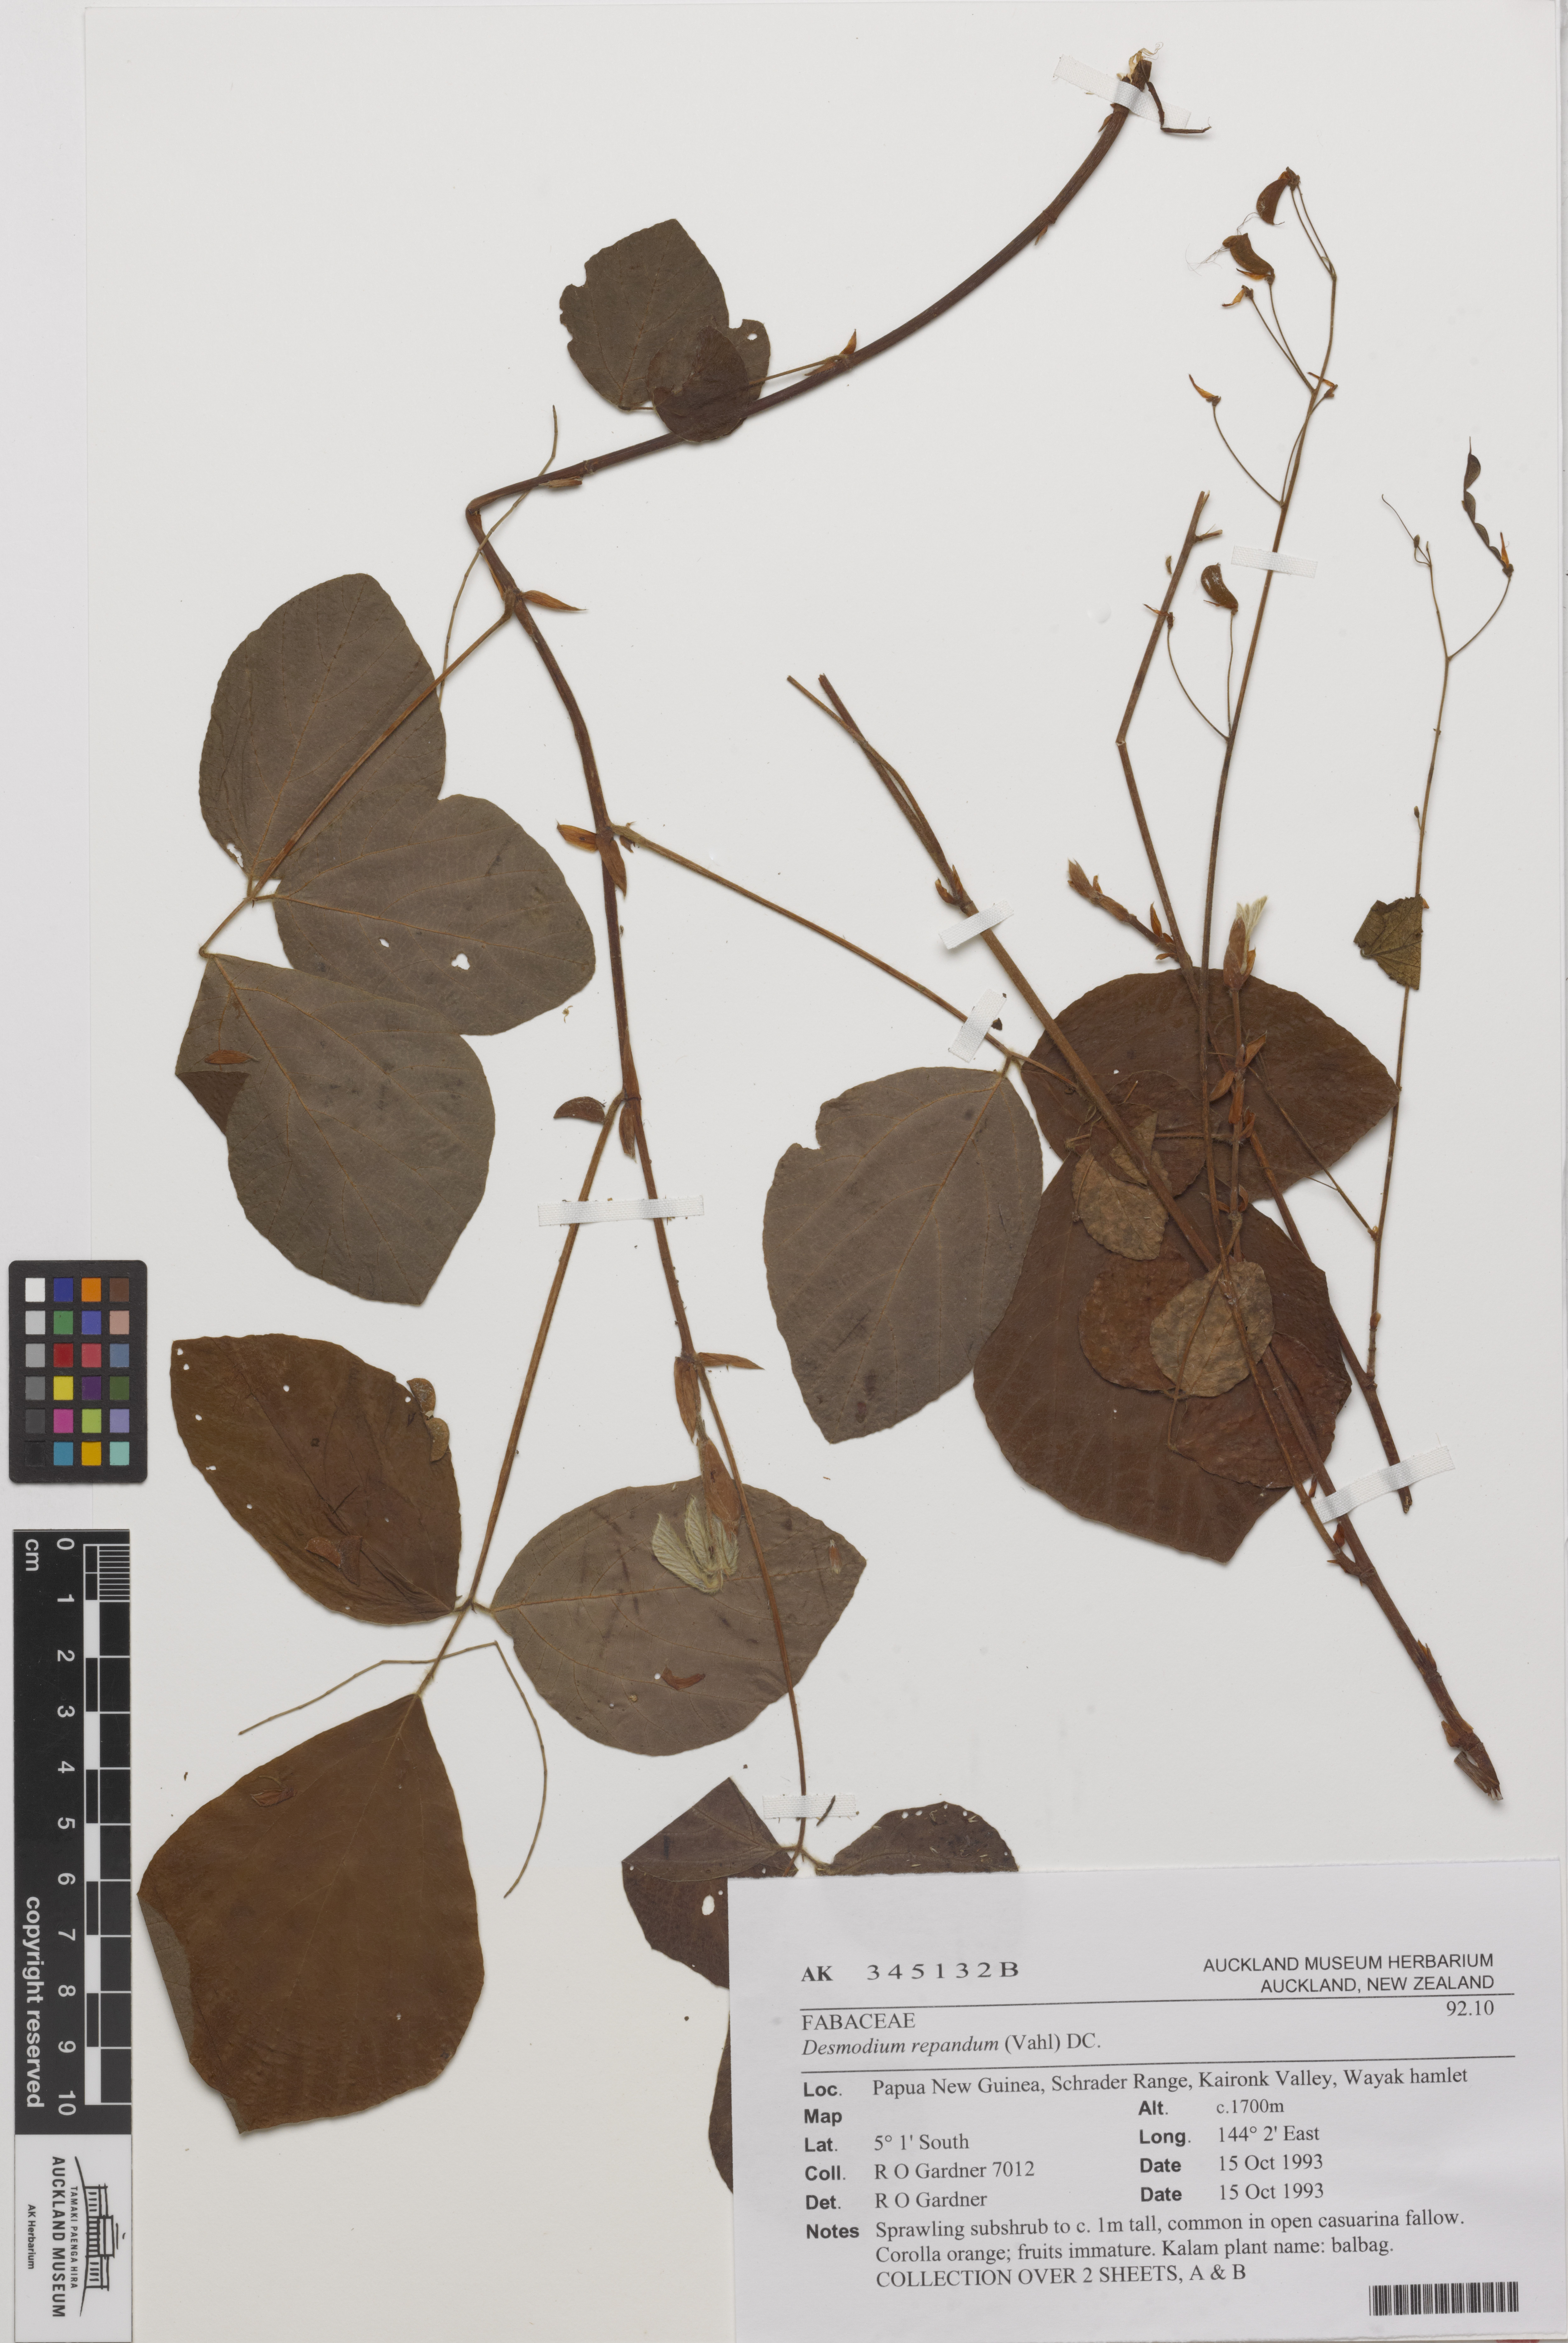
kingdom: Plantae
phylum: Tracheophyta
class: Magnoliopsida
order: Fabales
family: Fabaceae
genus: Hylodesmum
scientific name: Hylodesmum repandum
